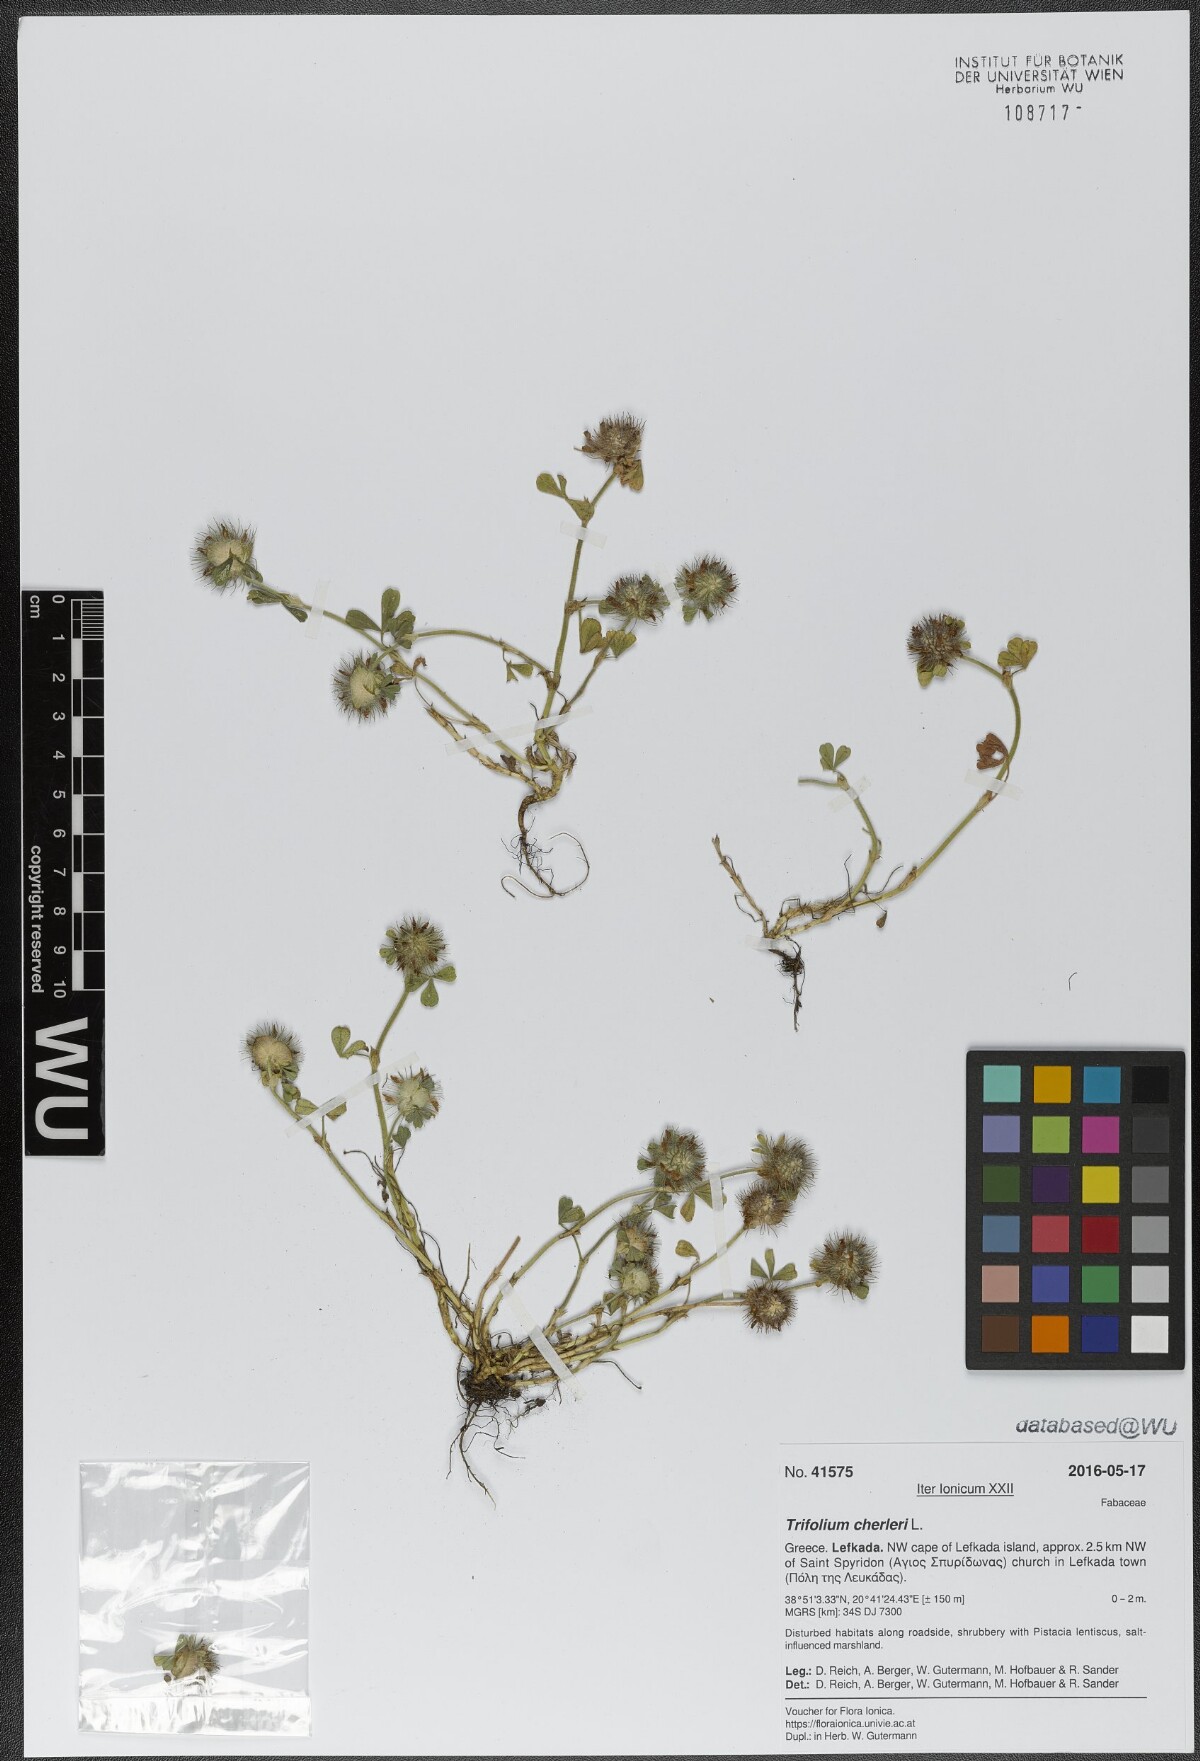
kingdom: Plantae
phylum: Tracheophyta
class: Magnoliopsida
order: Fabales
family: Fabaceae
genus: Trifolium
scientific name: Trifolium cherleri
